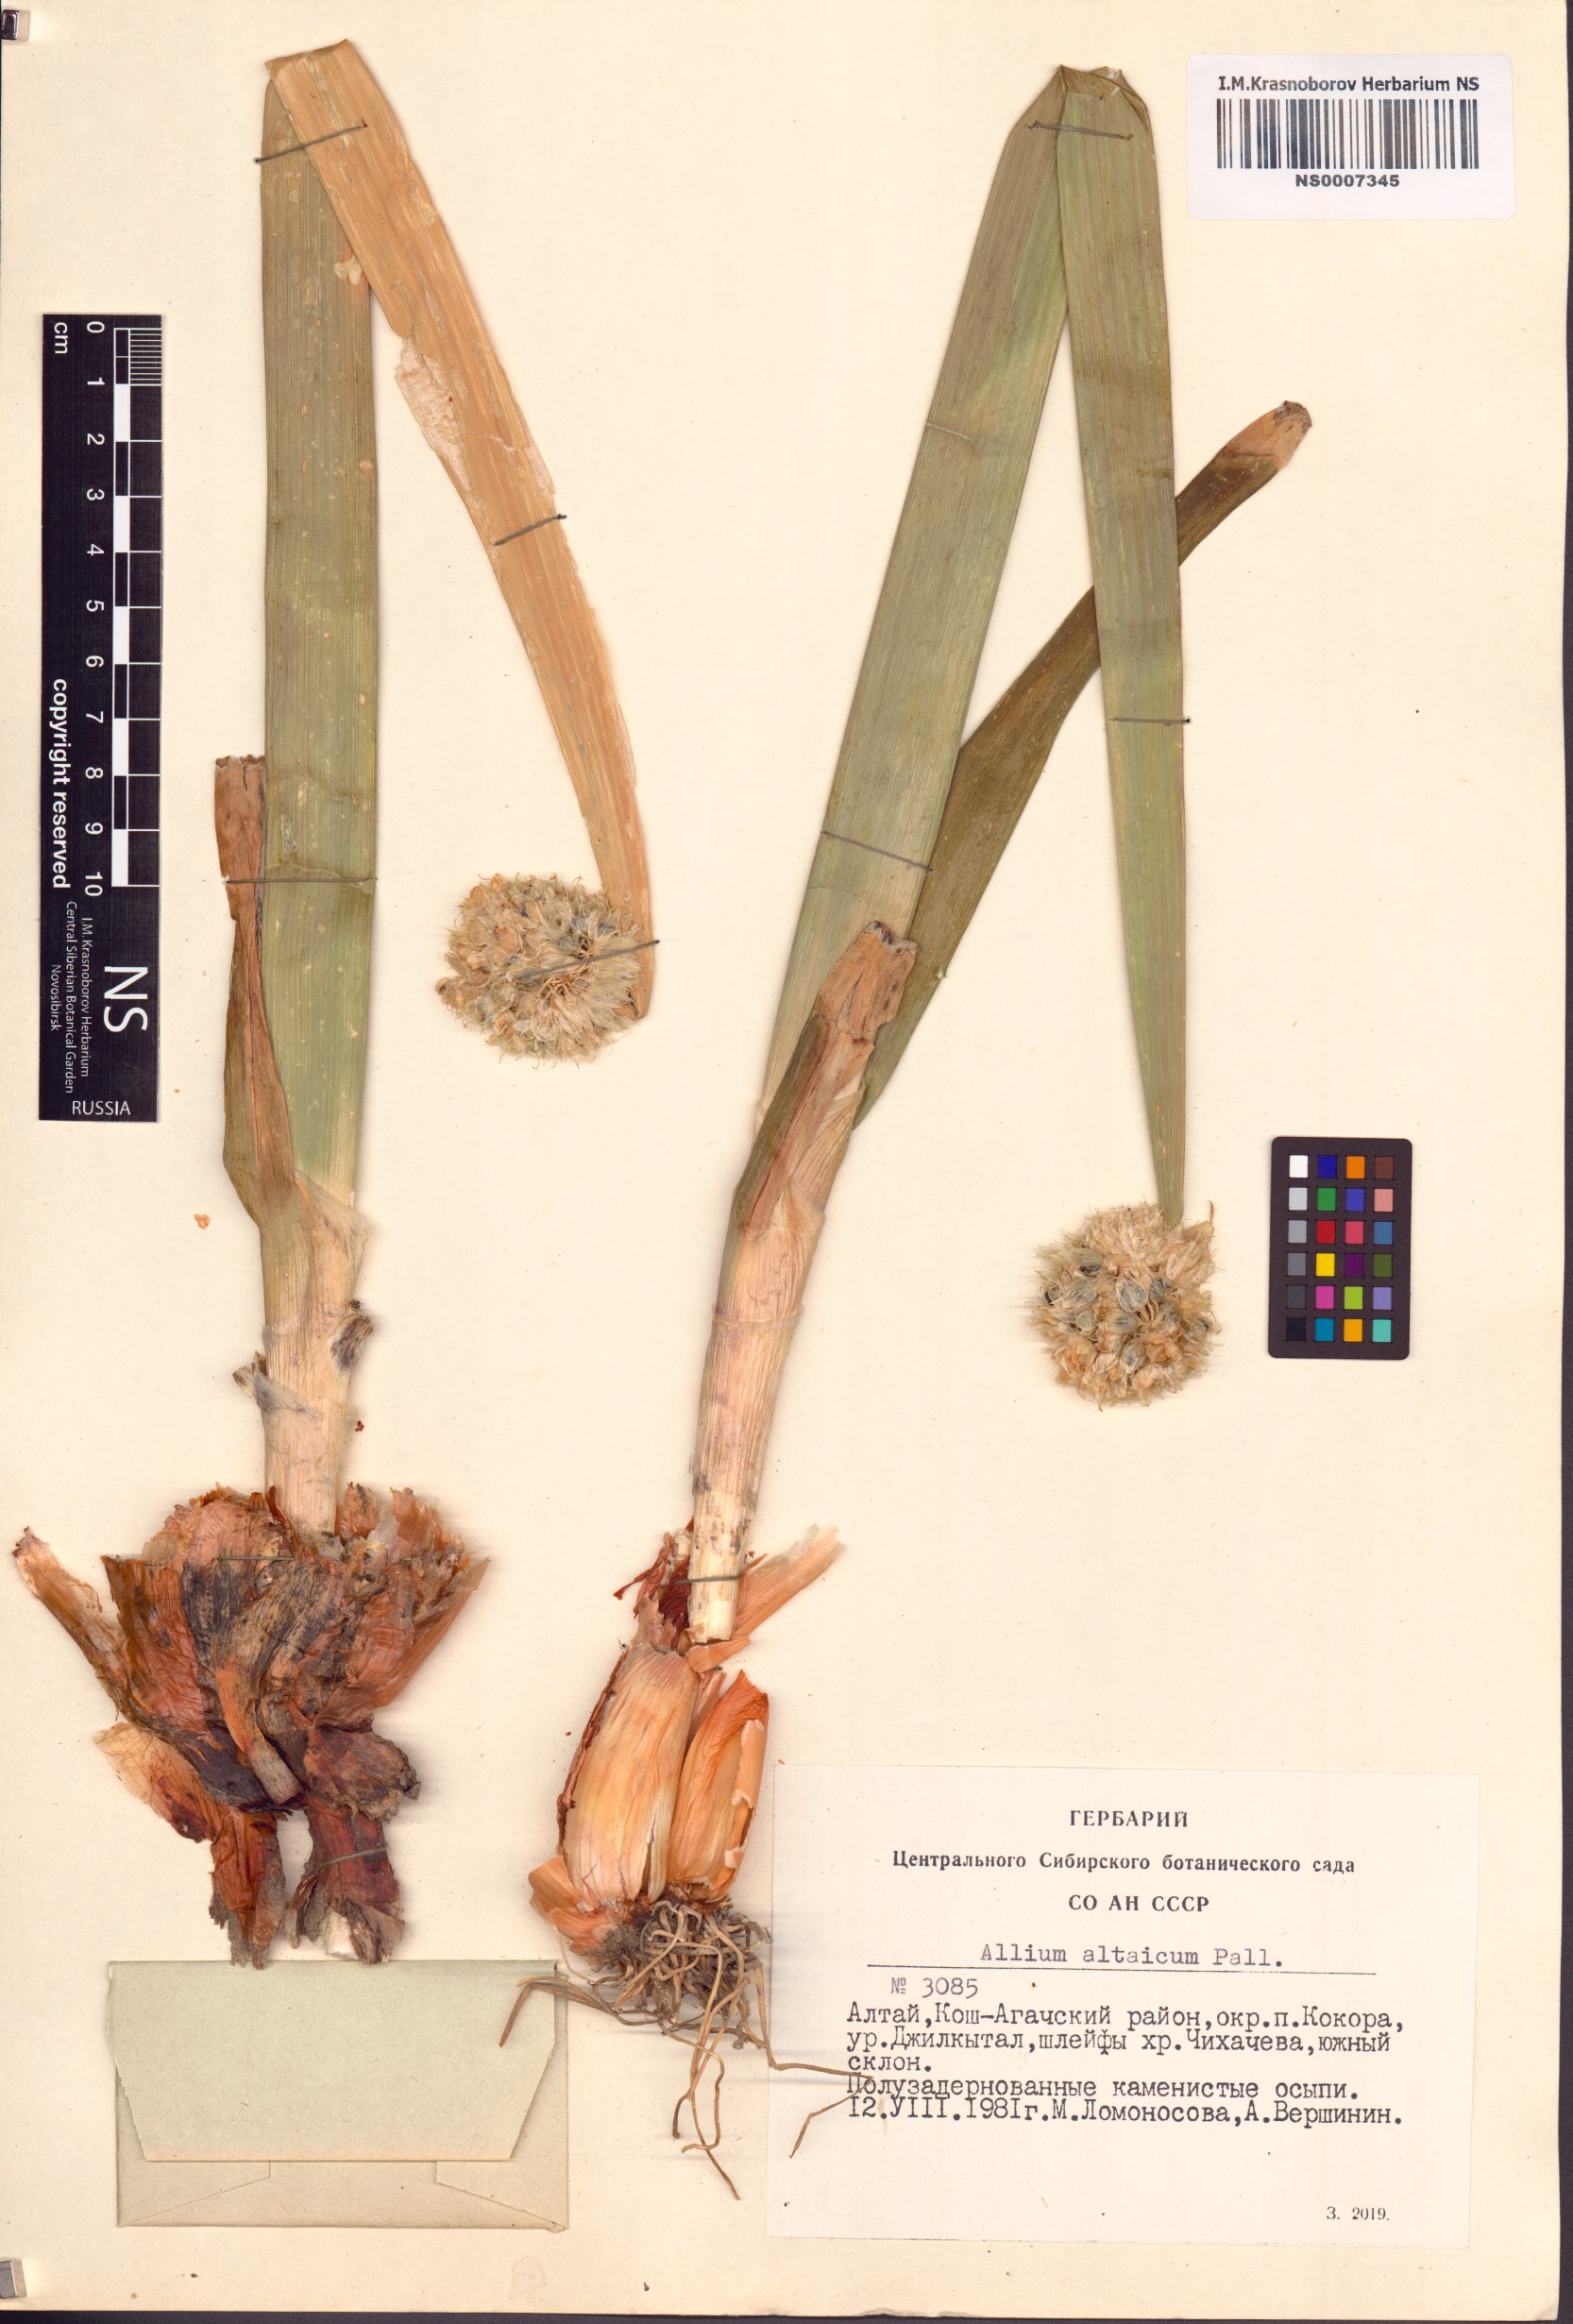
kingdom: Plantae
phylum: Tracheophyta
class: Liliopsida
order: Asparagales
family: Amaryllidaceae
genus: Allium
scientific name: Allium altaicum
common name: Altai onion
